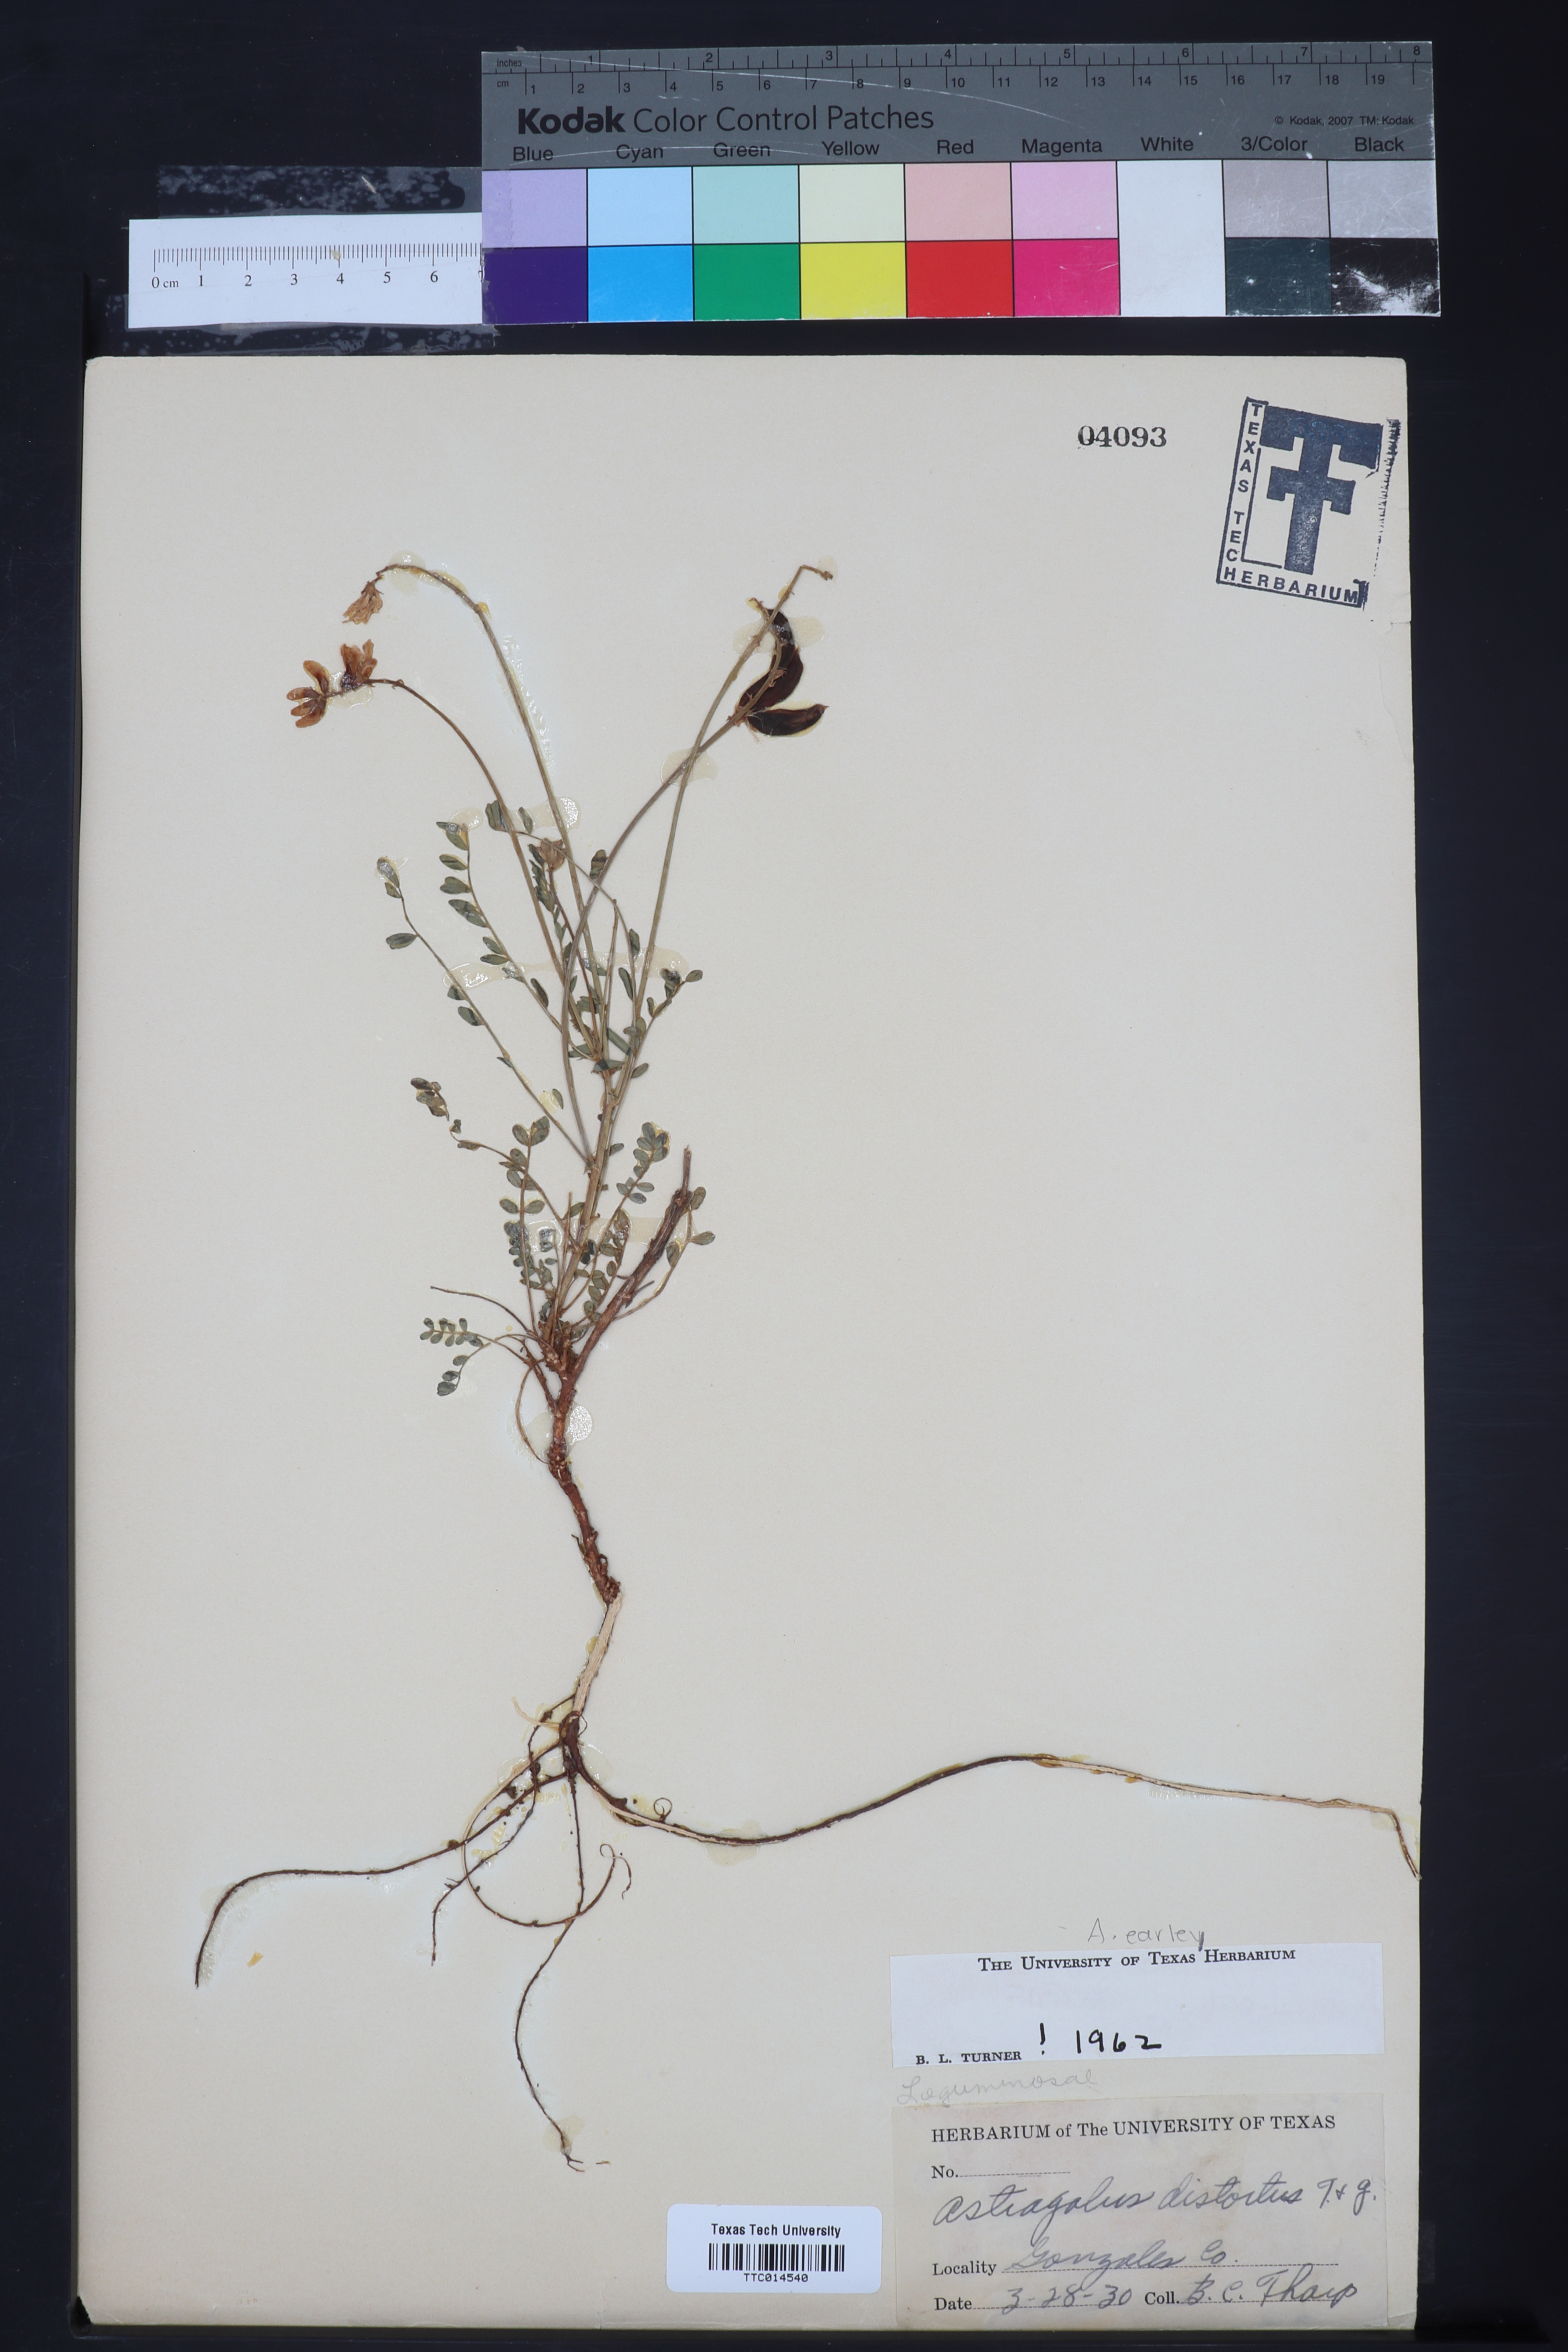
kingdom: Plantae
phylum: Tracheophyta
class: Magnoliopsida
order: Fabales
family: Fabaceae
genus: Astragalus
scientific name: Astragalus distortus
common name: Ozark milk-vetch
